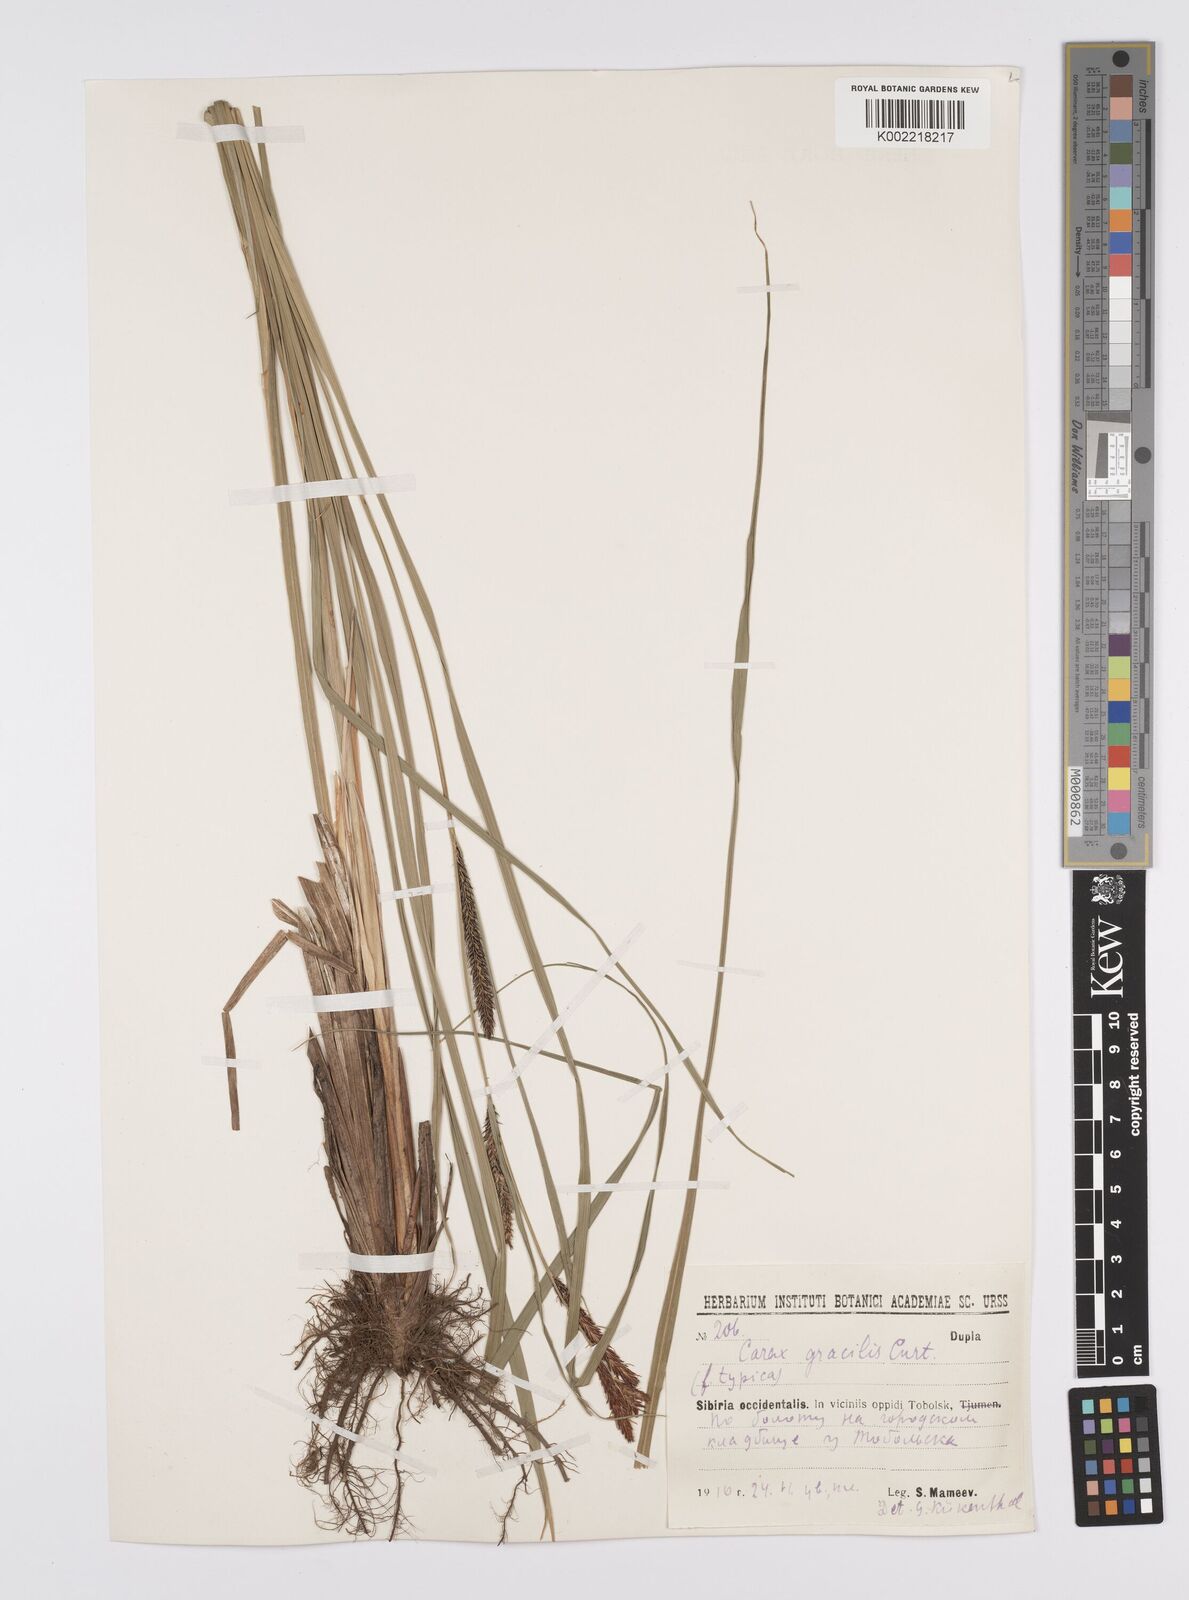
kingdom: Plantae
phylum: Tracheophyta
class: Liliopsida
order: Poales
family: Cyperaceae
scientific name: Cyperaceae
